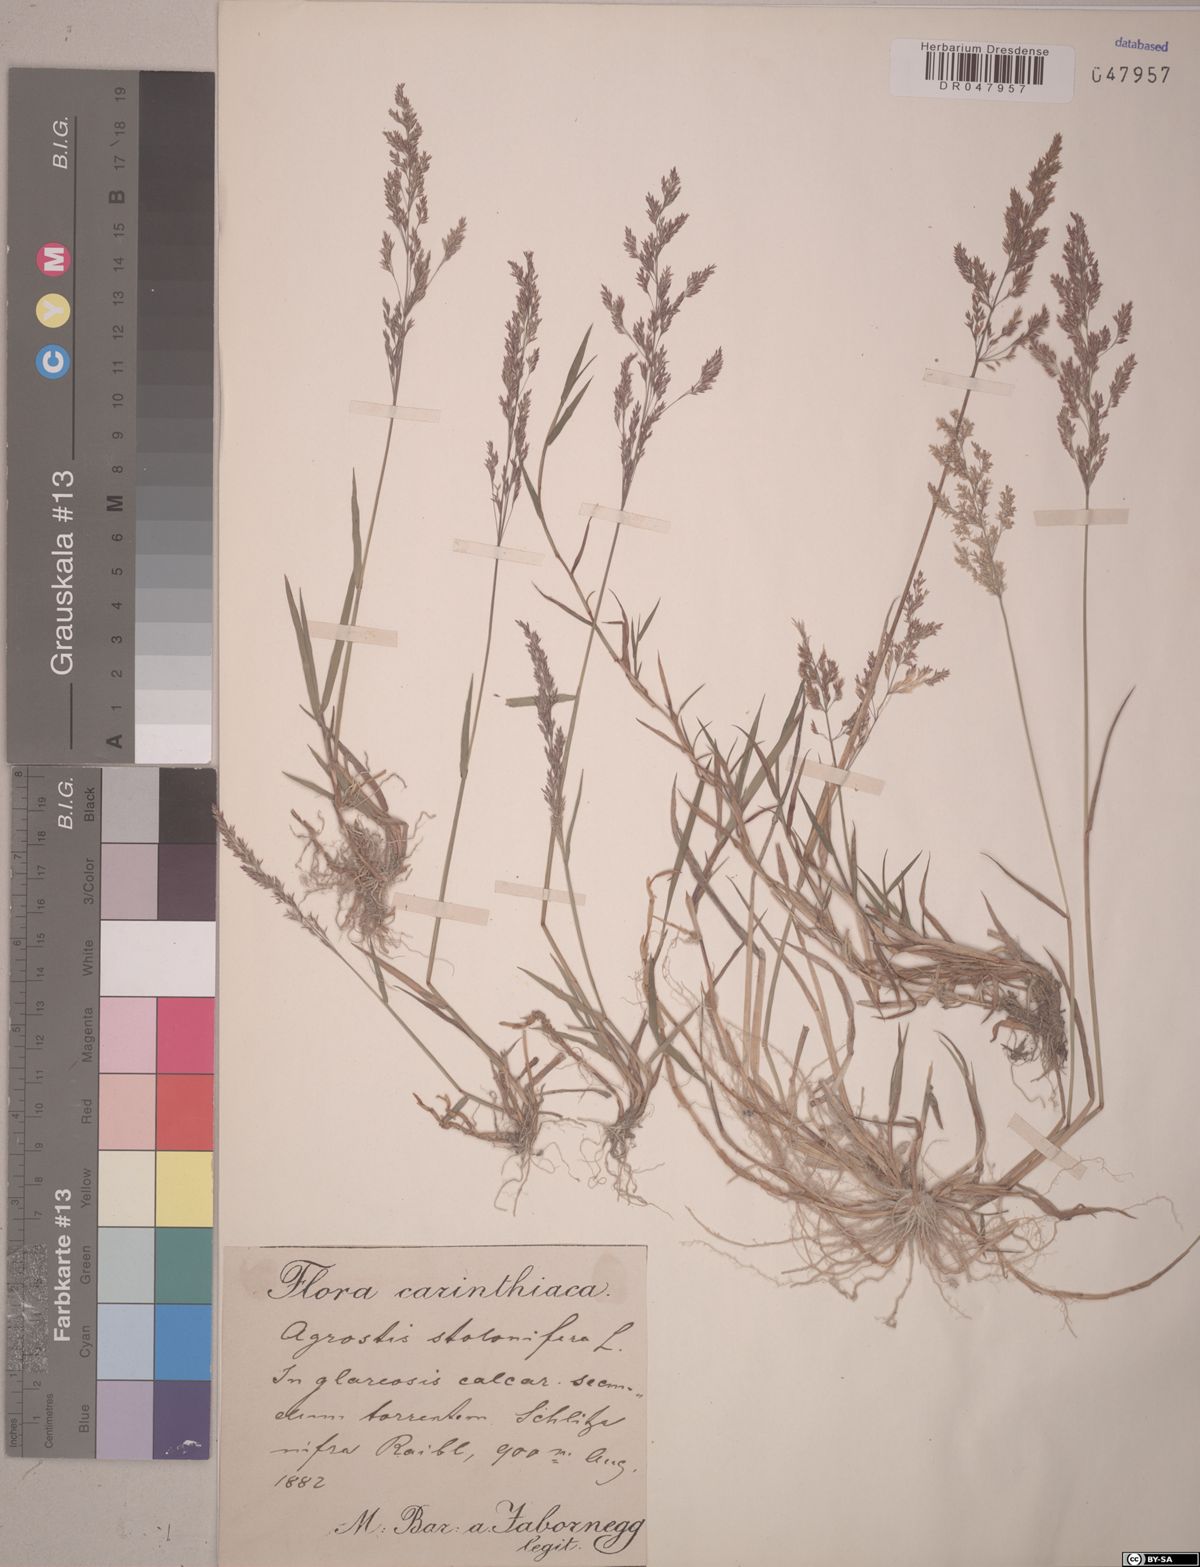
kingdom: Plantae
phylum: Tracheophyta
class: Liliopsida
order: Poales
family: Poaceae
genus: Agrostis
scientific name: Agrostis stolonifera
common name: Creeping bentgrass
